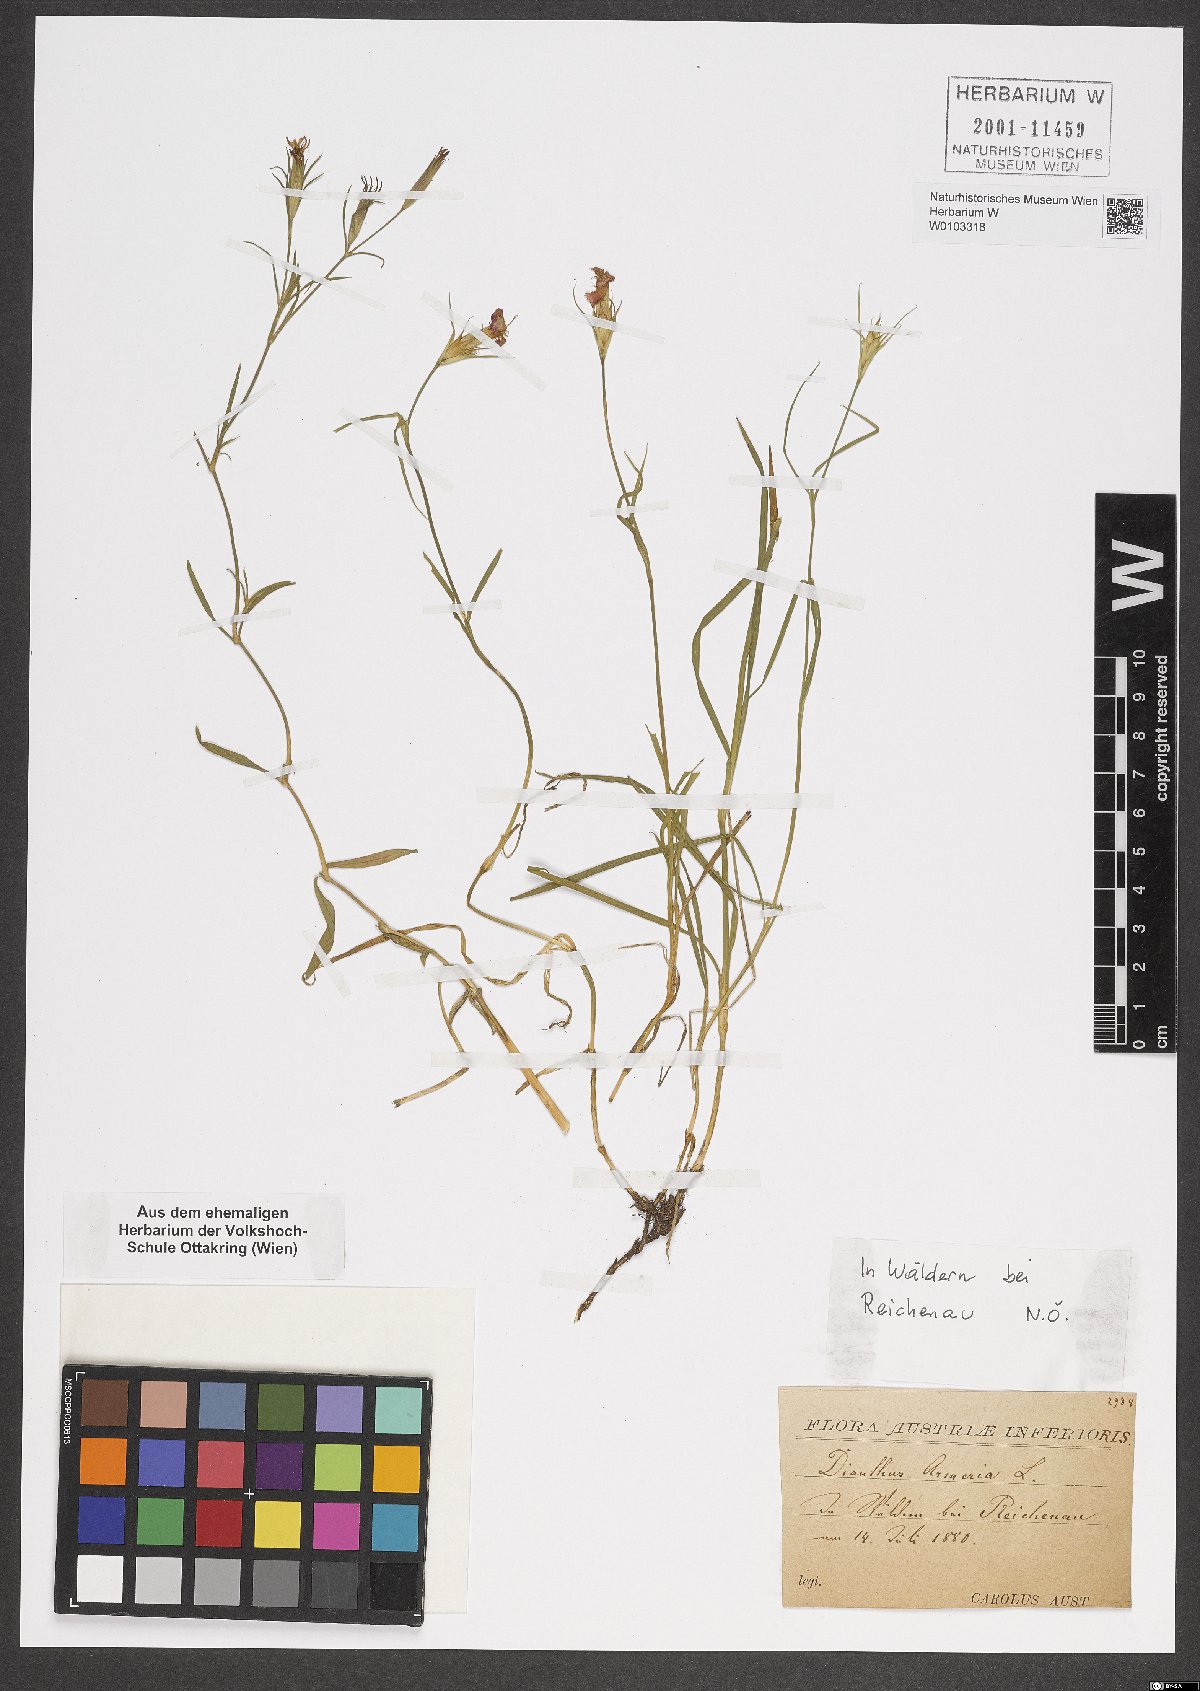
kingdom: Plantae
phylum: Tracheophyta
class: Magnoliopsida
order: Caryophyllales
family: Caryophyllaceae
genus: Dianthus
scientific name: Dianthus armeria
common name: Deptford pink
